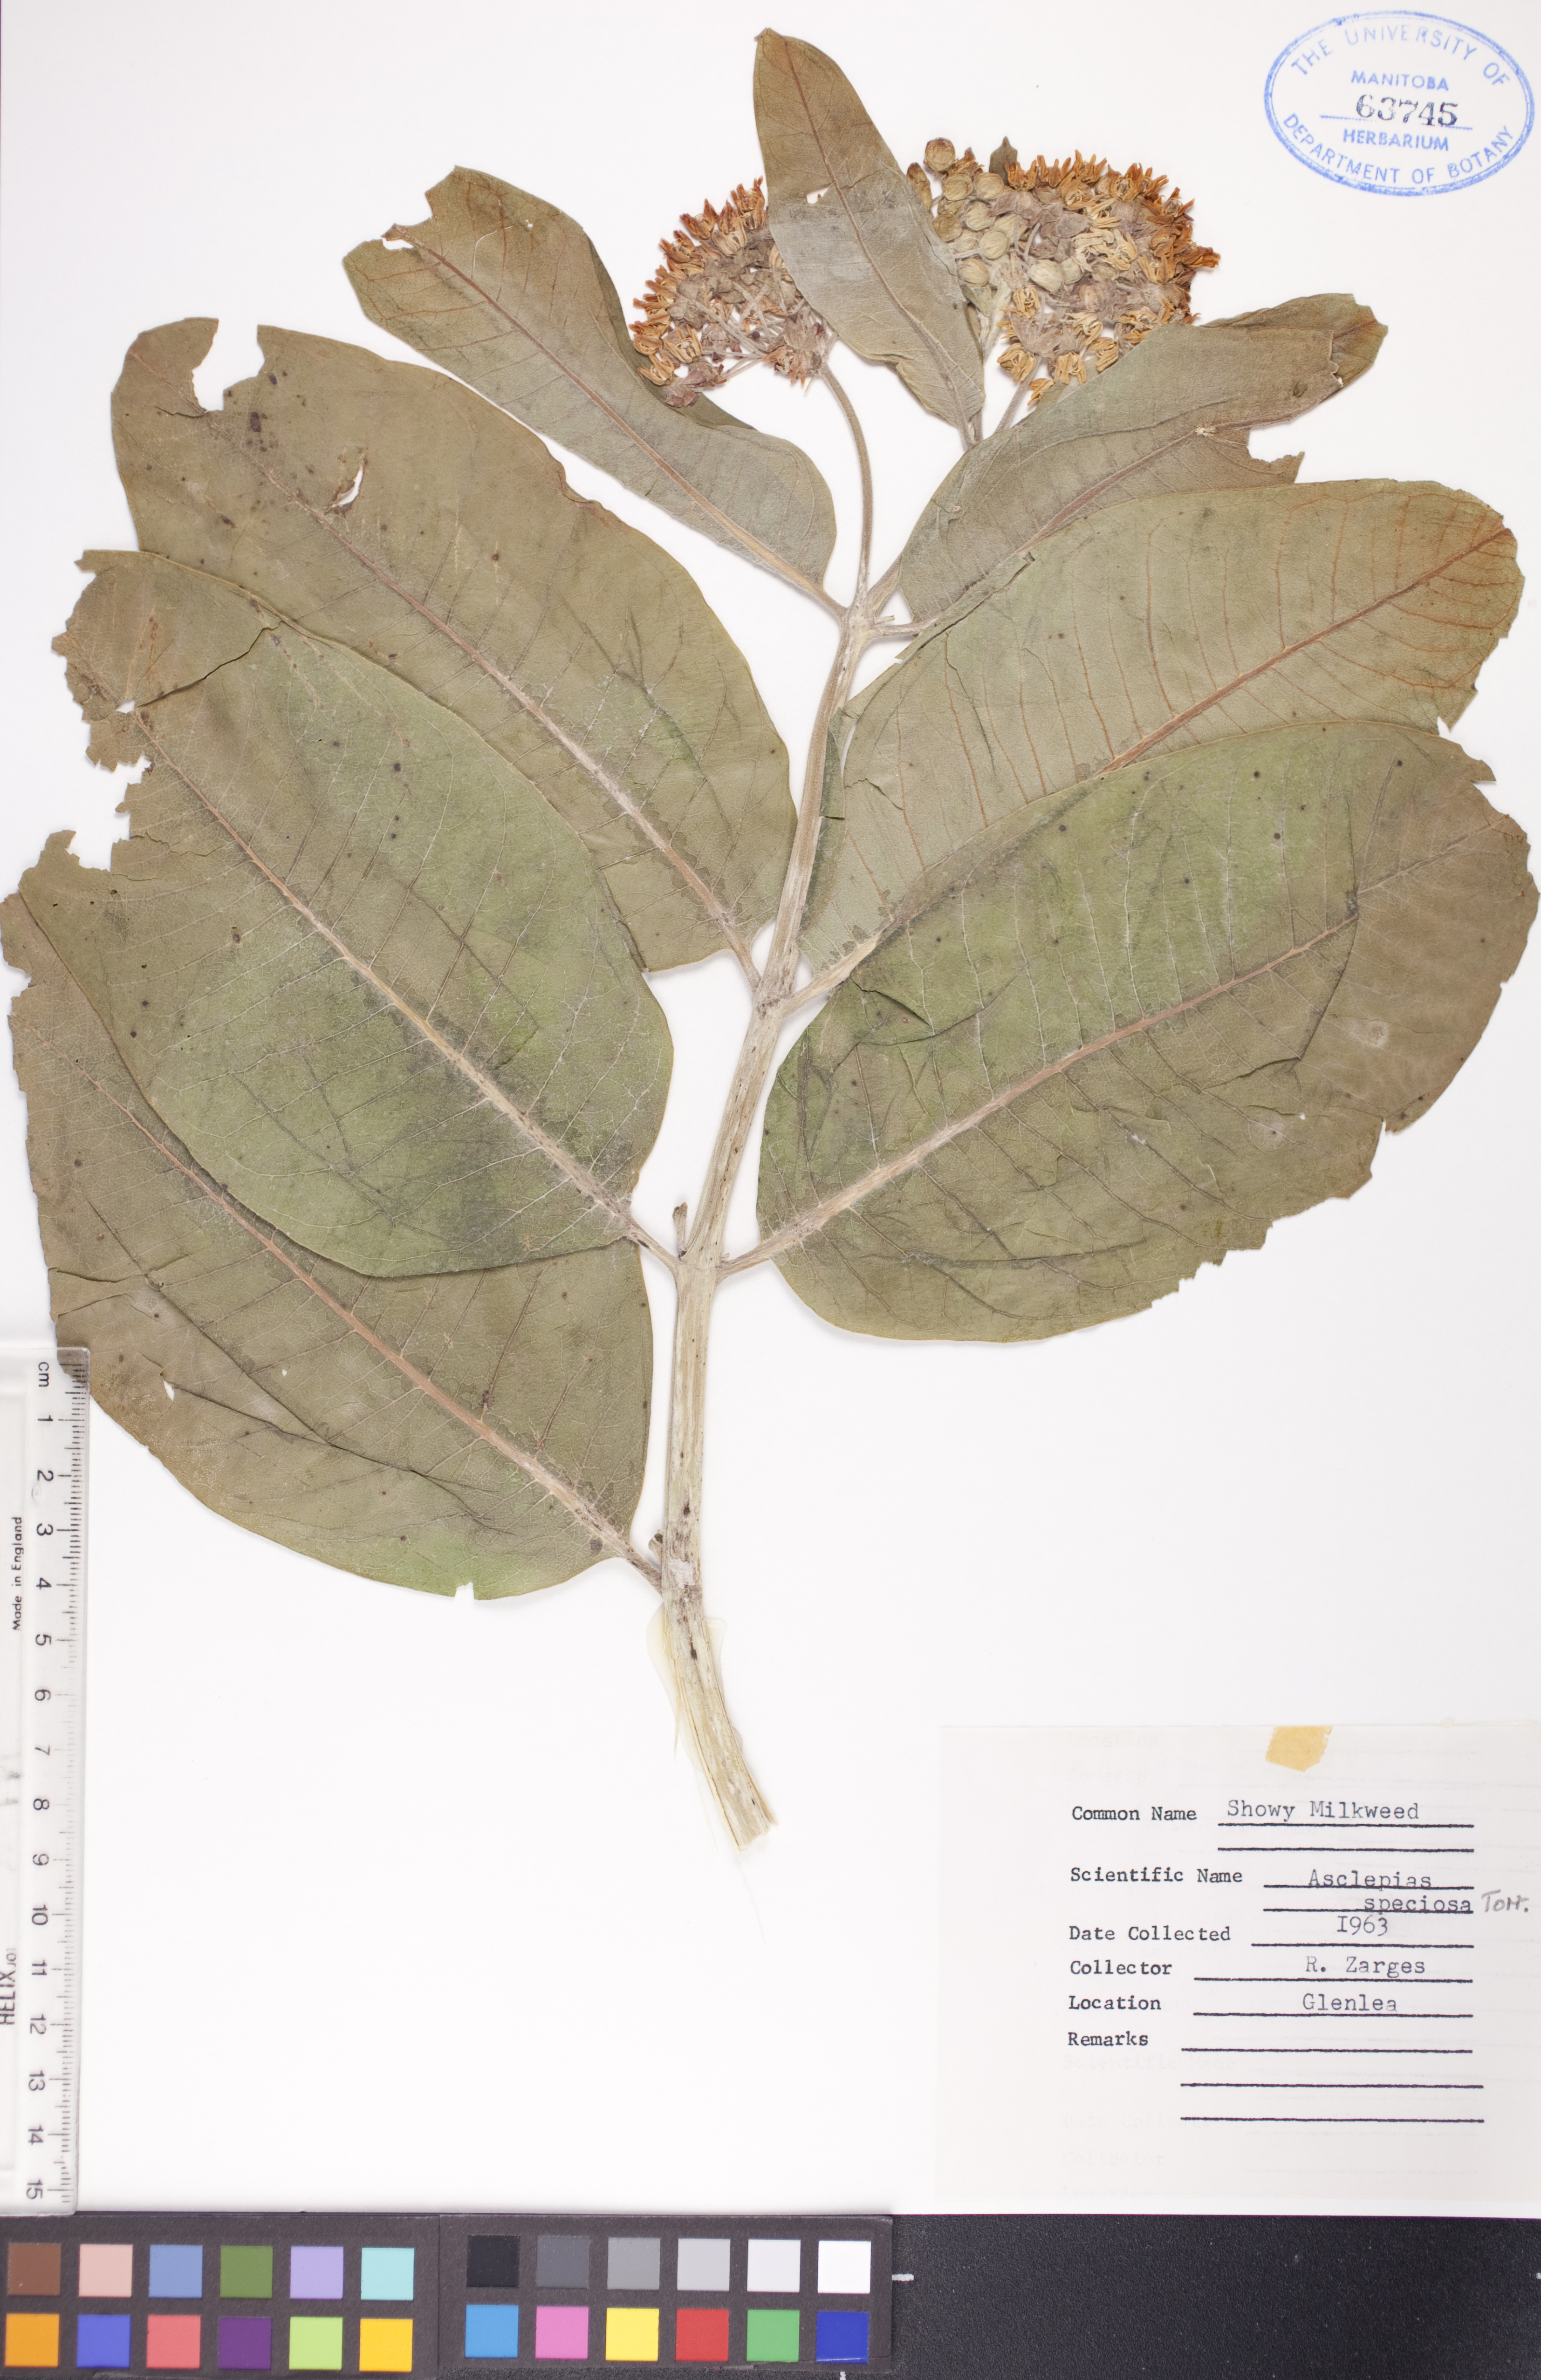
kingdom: Plantae
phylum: Tracheophyta
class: Magnoliopsida
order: Gentianales
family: Apocynaceae
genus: Asclepias
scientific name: Asclepias speciosa
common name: Showy milkweed
